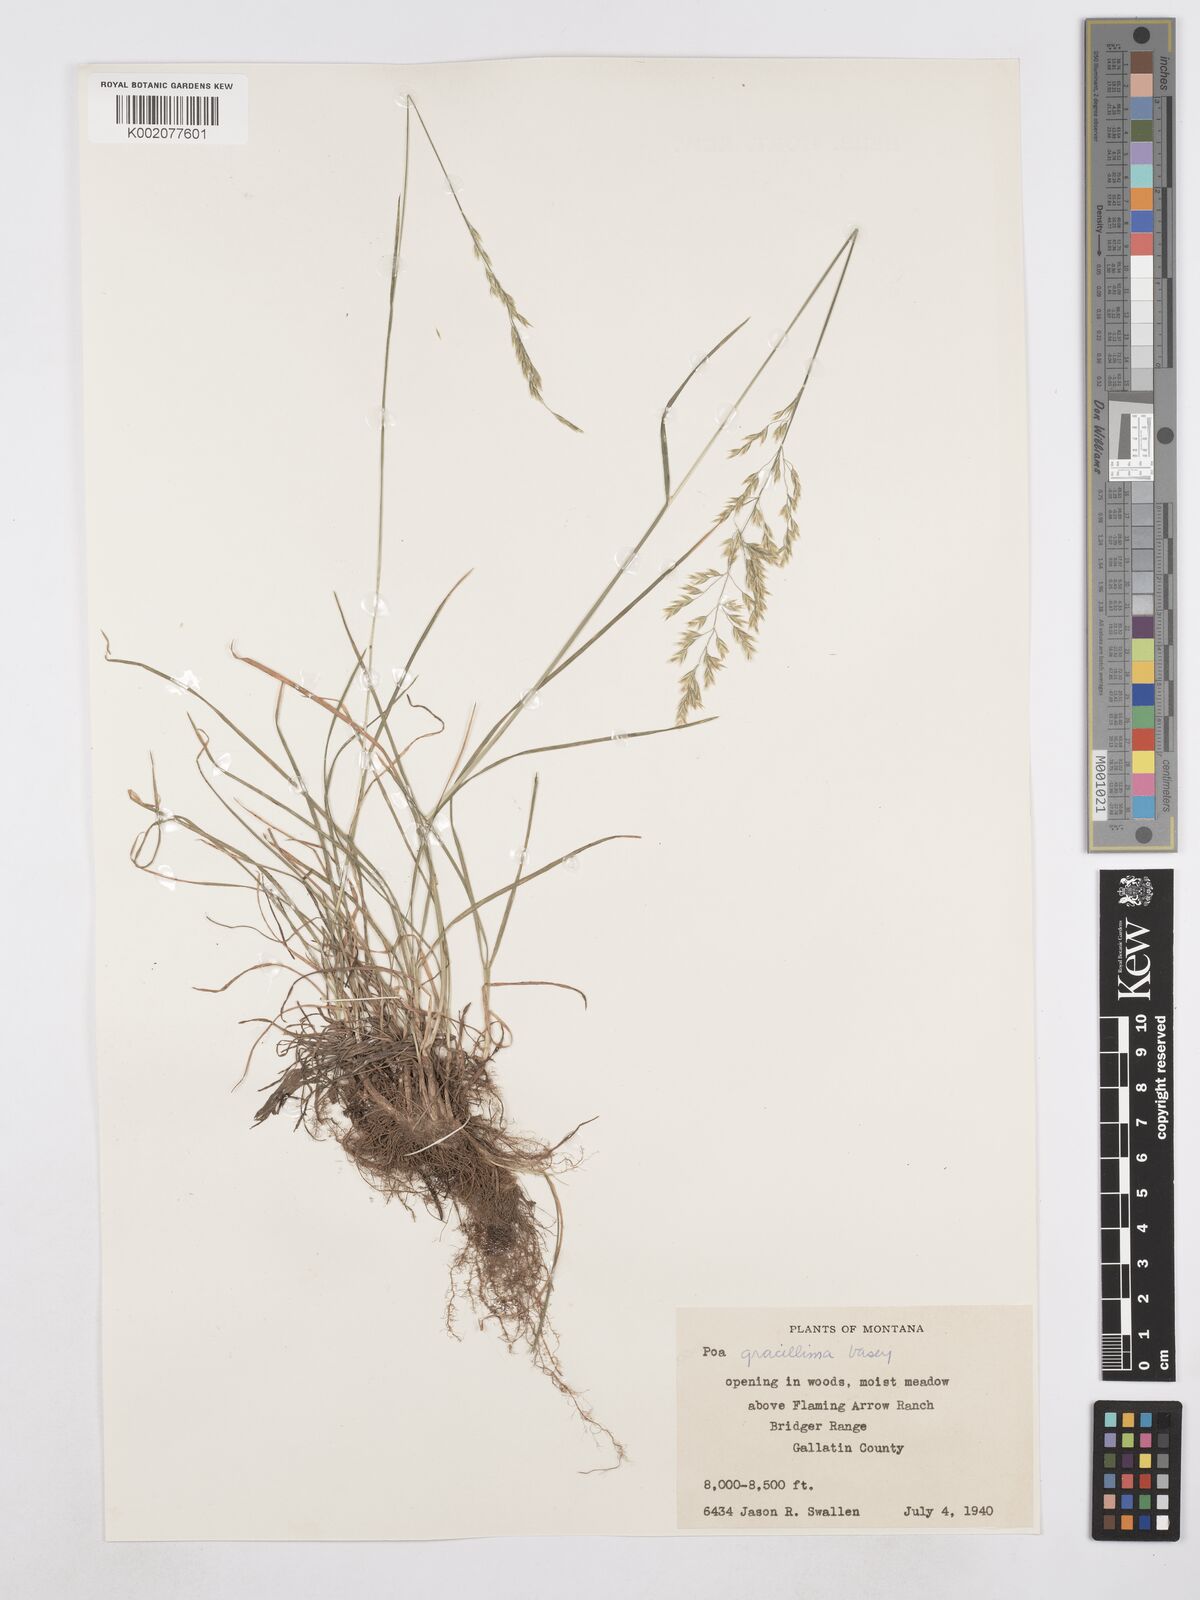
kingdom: Plantae
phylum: Tracheophyta
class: Liliopsida
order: Poales
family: Poaceae
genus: Poa
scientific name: Poa secunda
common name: Sandberg bluegrass
